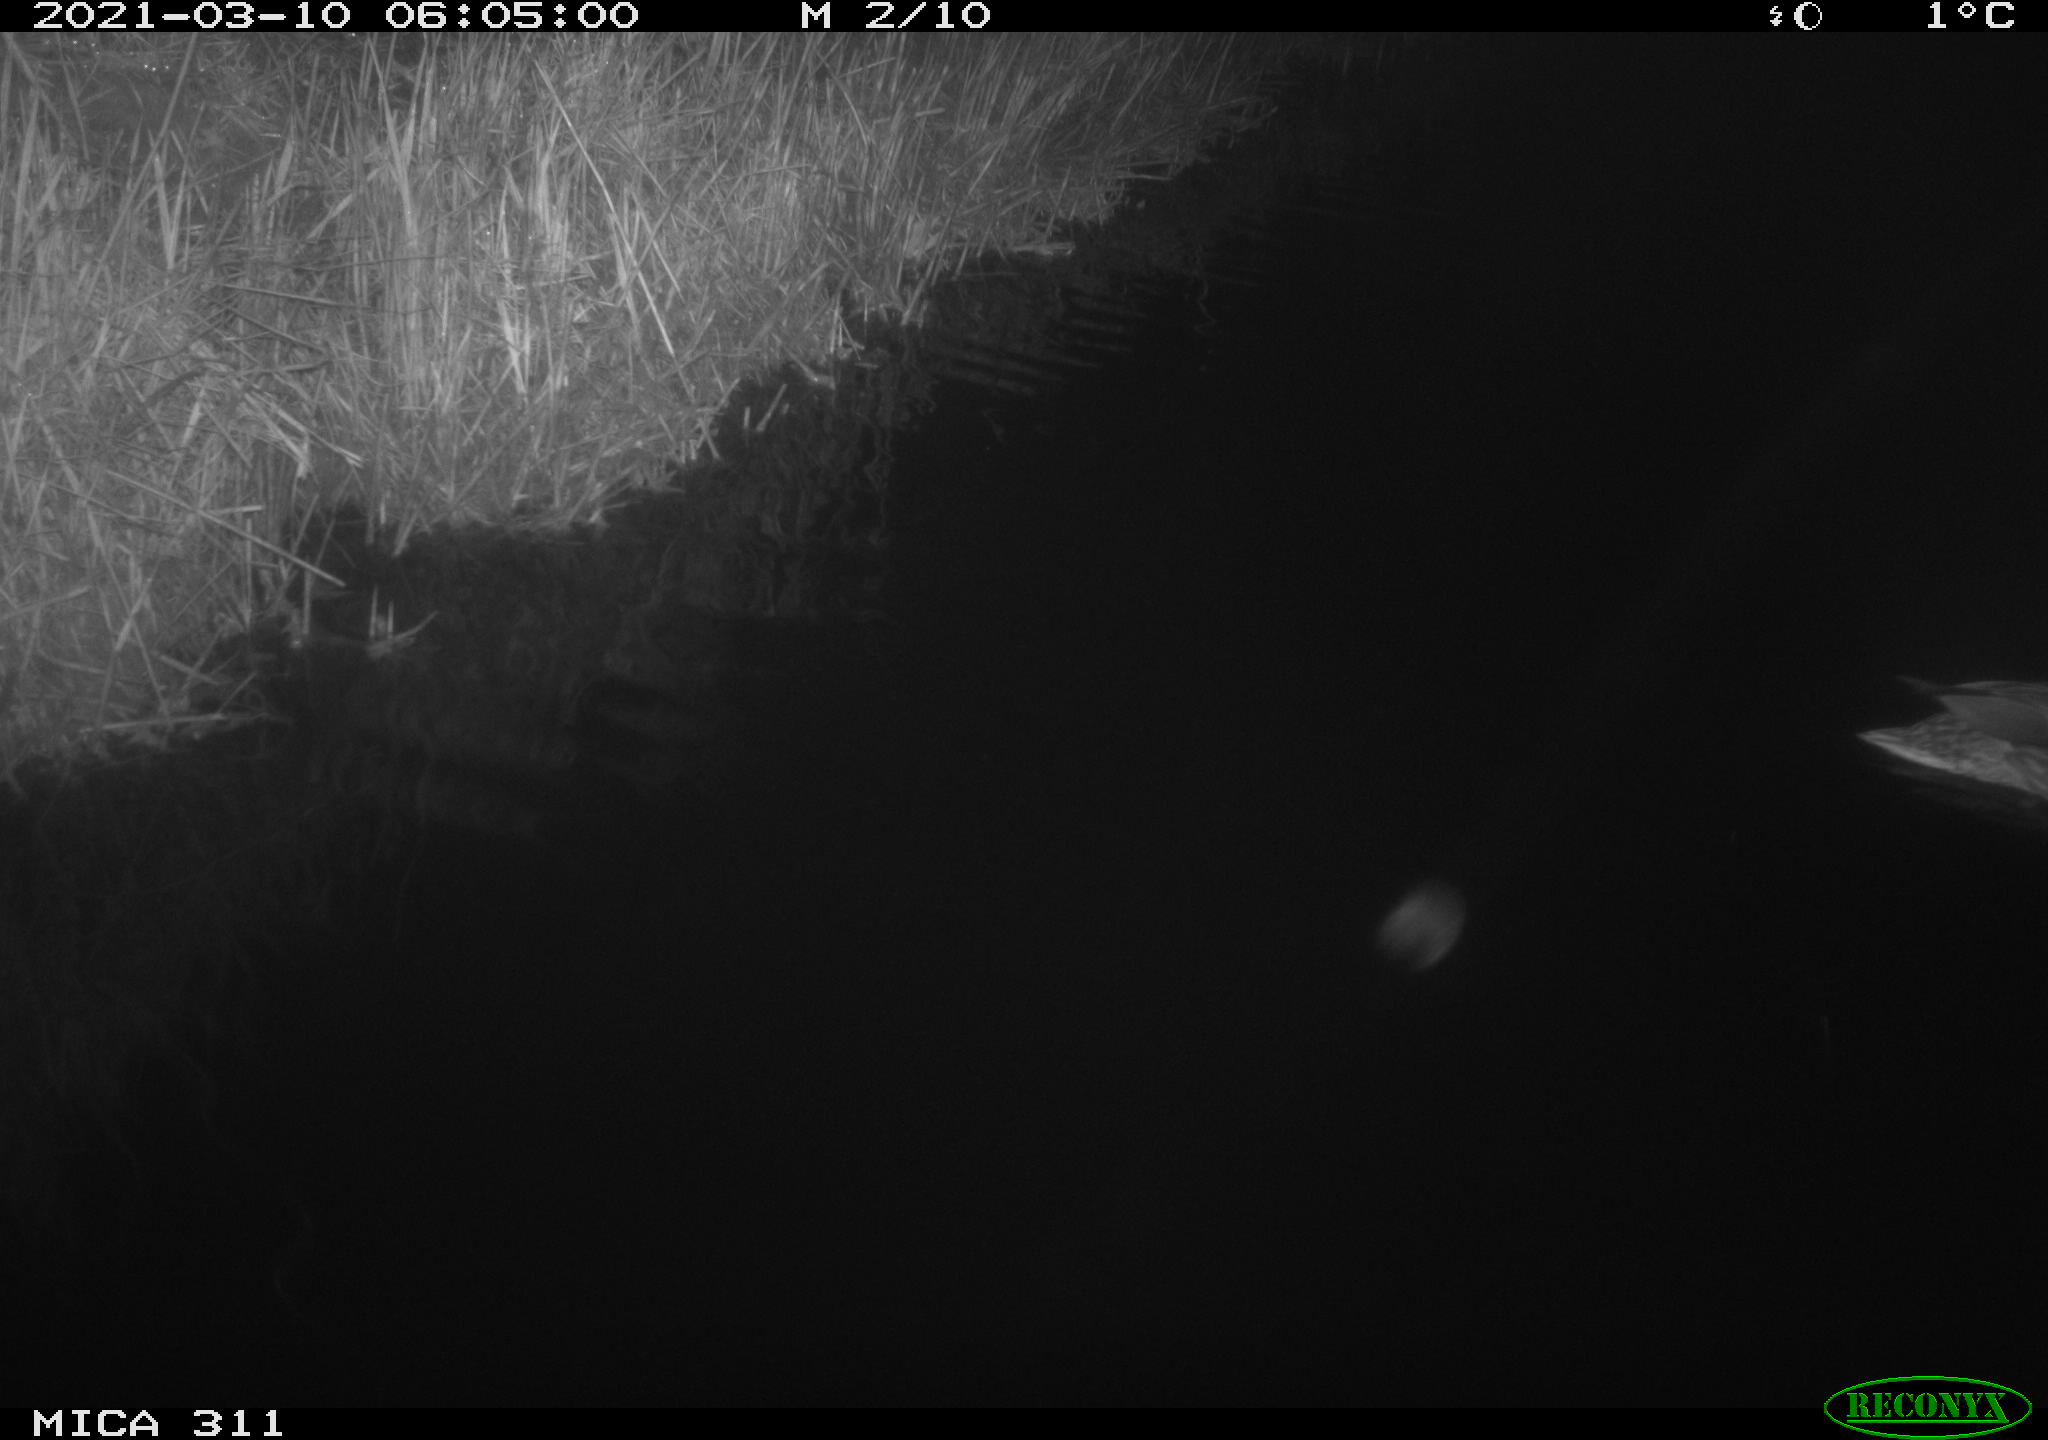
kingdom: Animalia
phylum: Chordata
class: Aves
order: Anseriformes
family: Anatidae
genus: Anas
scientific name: Anas platyrhynchos
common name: Mallard
